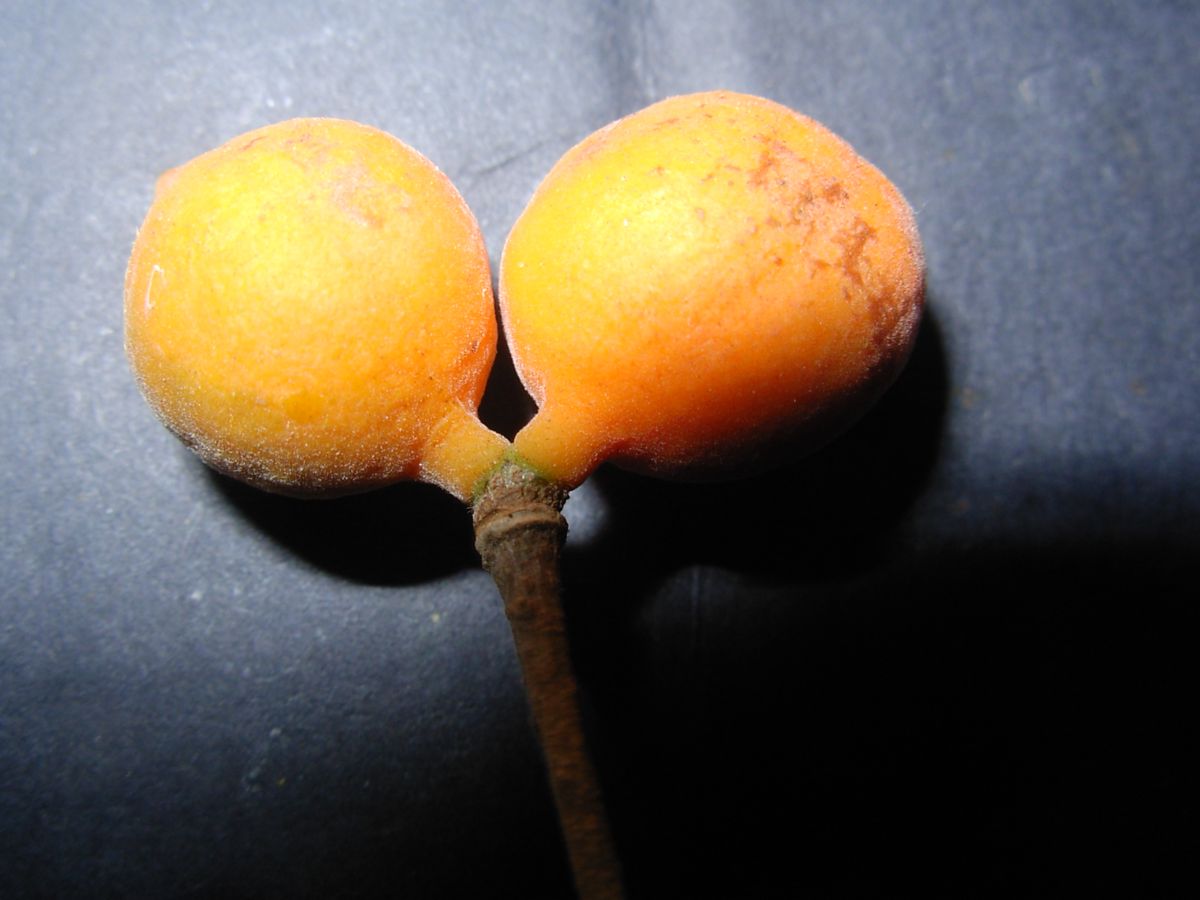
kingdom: Plantae
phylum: Tracheophyta
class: Magnoliopsida
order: Magnoliales
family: Annonaceae
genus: Sapranthus
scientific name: Sapranthus microcarpus
